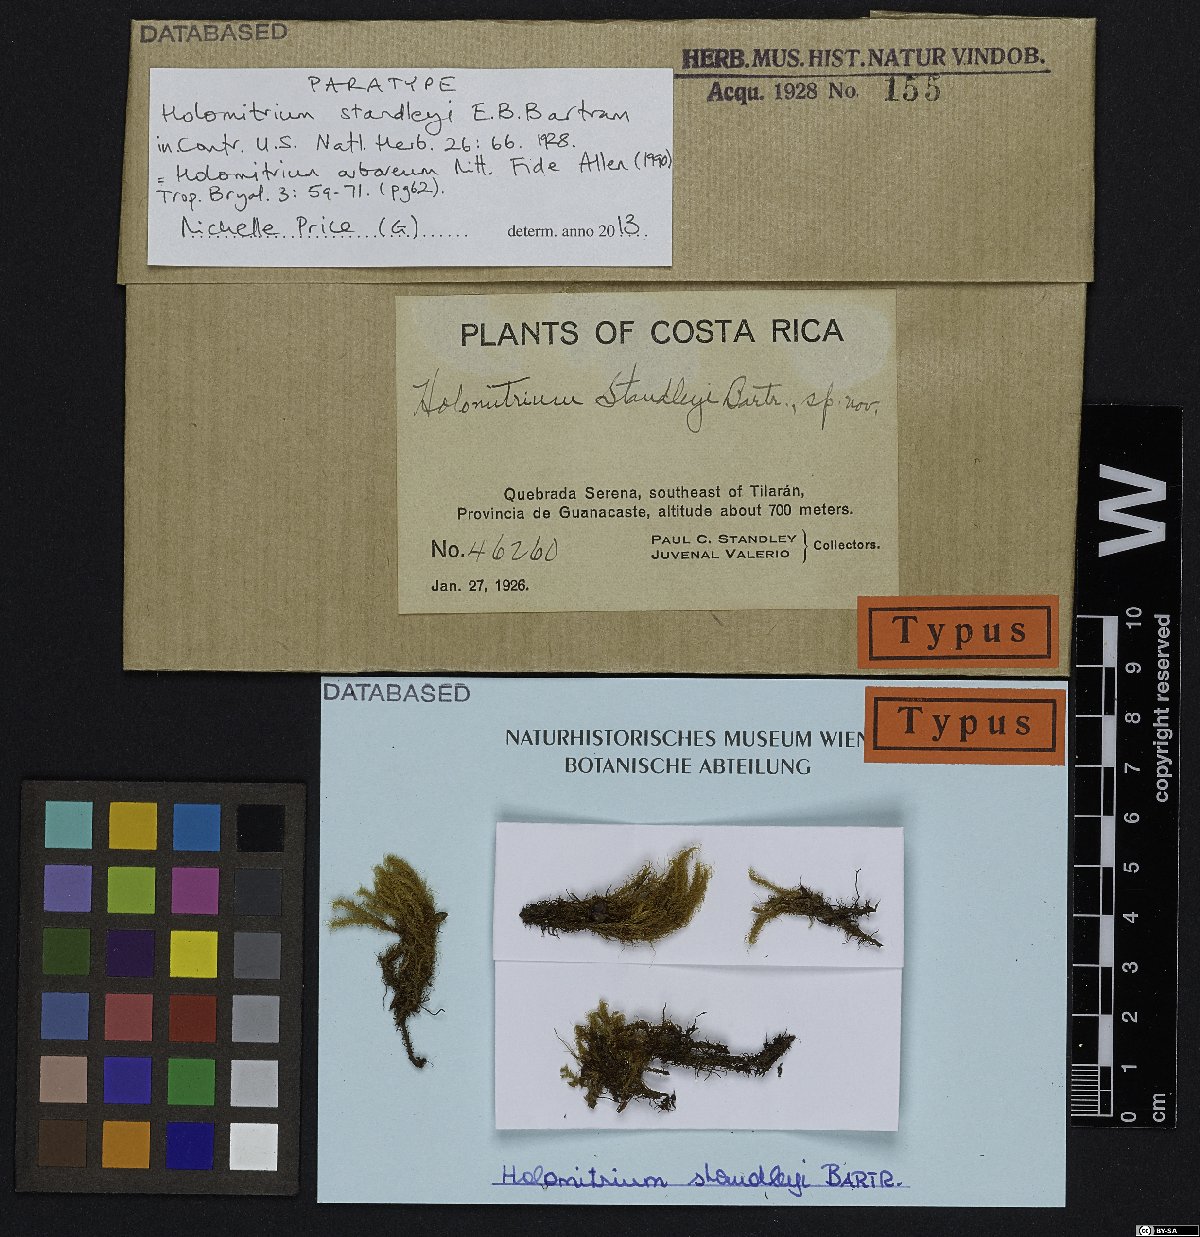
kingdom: Plantae
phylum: Bryophyta
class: Bryopsida
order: Dicranales
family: Dicranaceae
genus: Holomitrium
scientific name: Holomitrium arboreum
